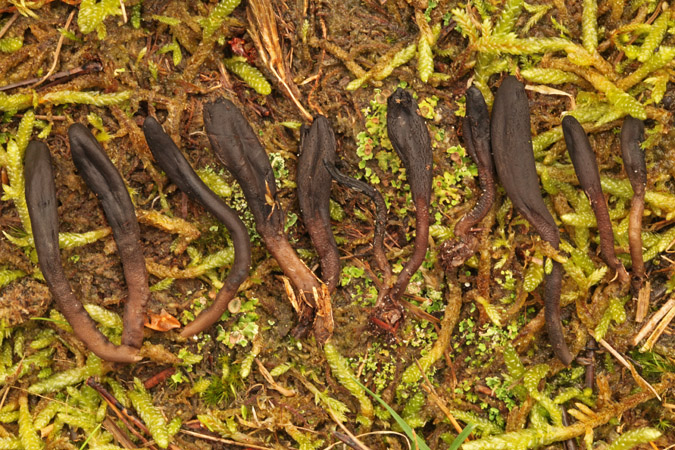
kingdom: Fungi
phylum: Ascomycota
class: Geoglossomycetes
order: Geoglossales
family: Geoglossaceae
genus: Hemileucoglossum
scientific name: Hemileucoglossum elongatum
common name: småsporet jordtunge
